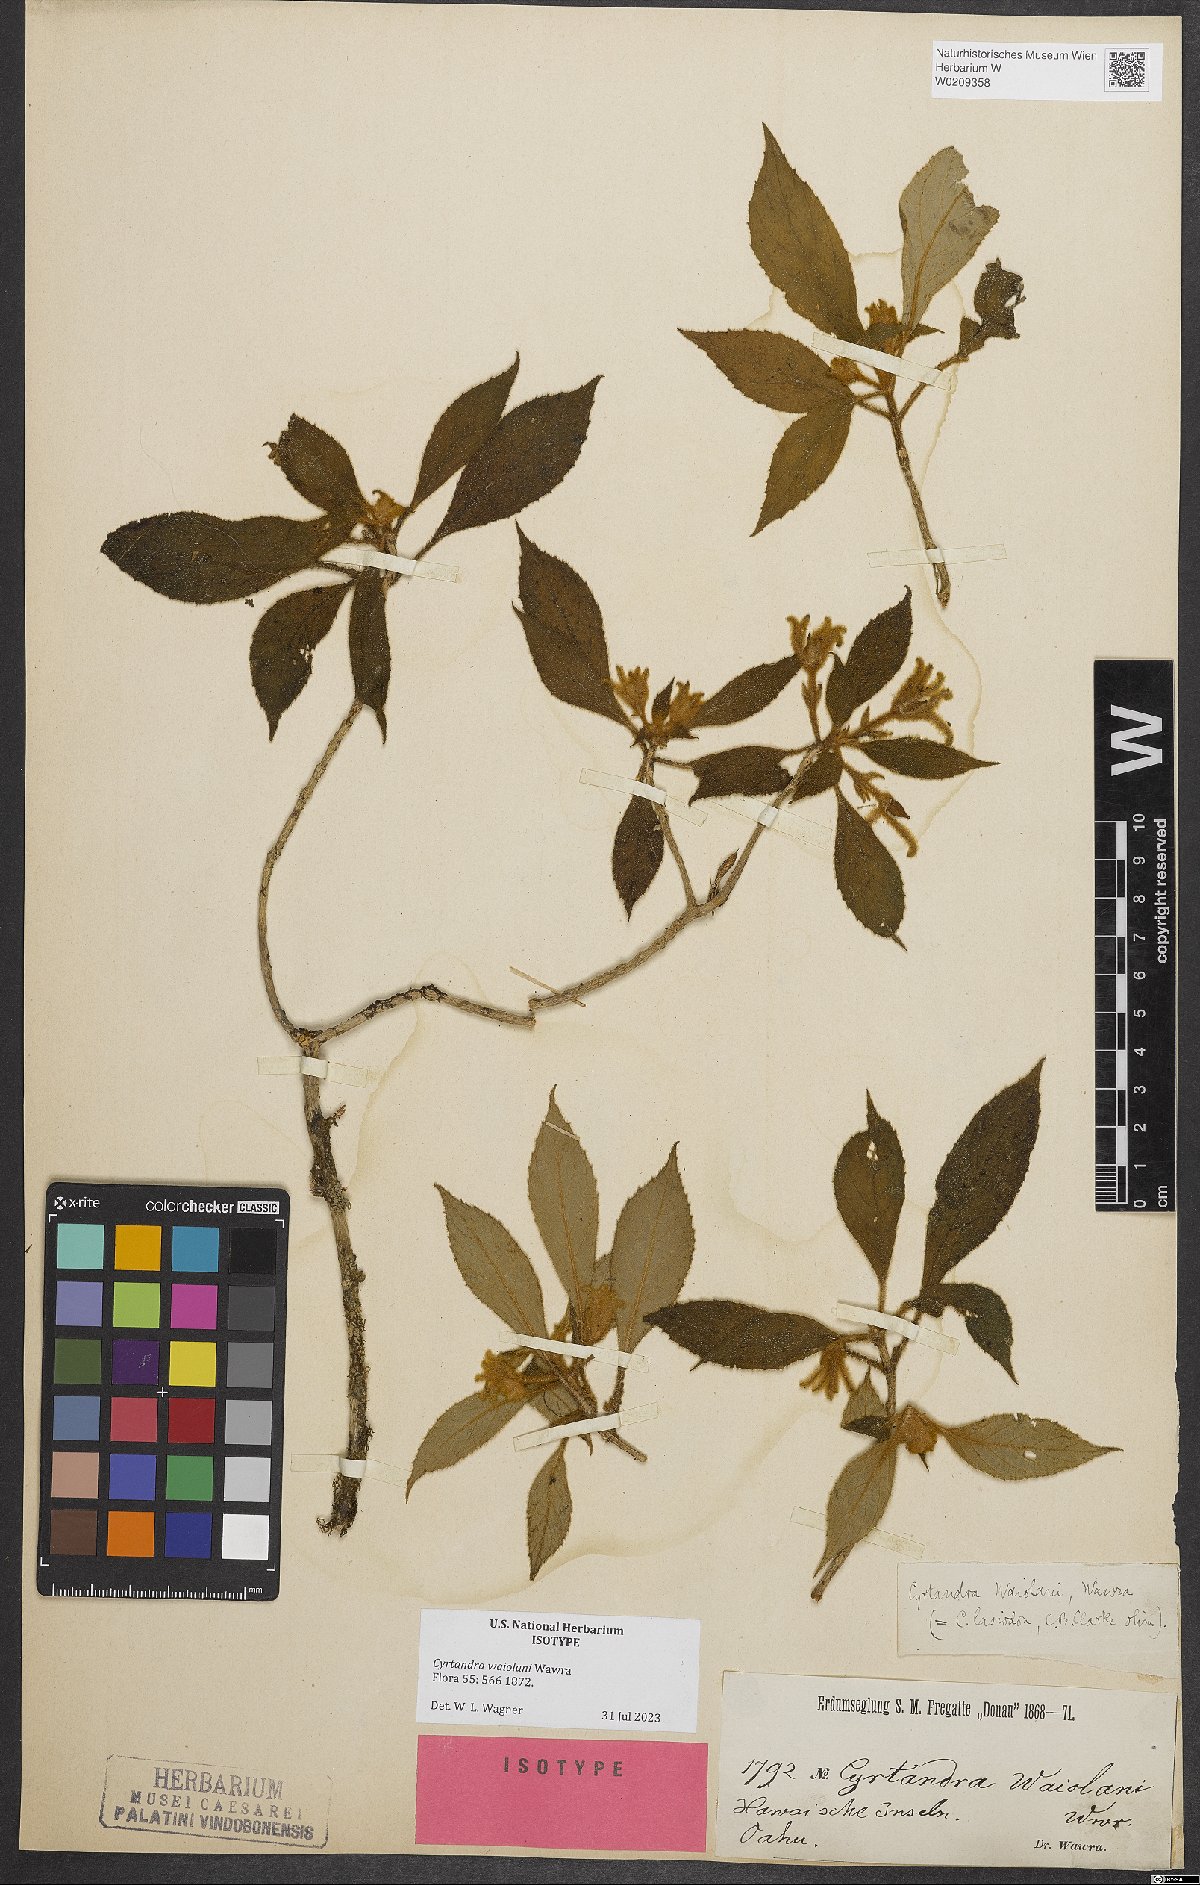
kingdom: Plantae
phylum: Tracheophyta
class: Magnoliopsida
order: Lamiales
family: Gesneriaceae
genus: Cyrtandra
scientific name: Cyrtandra waiolani
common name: Fuzzyflower cyrtandra
